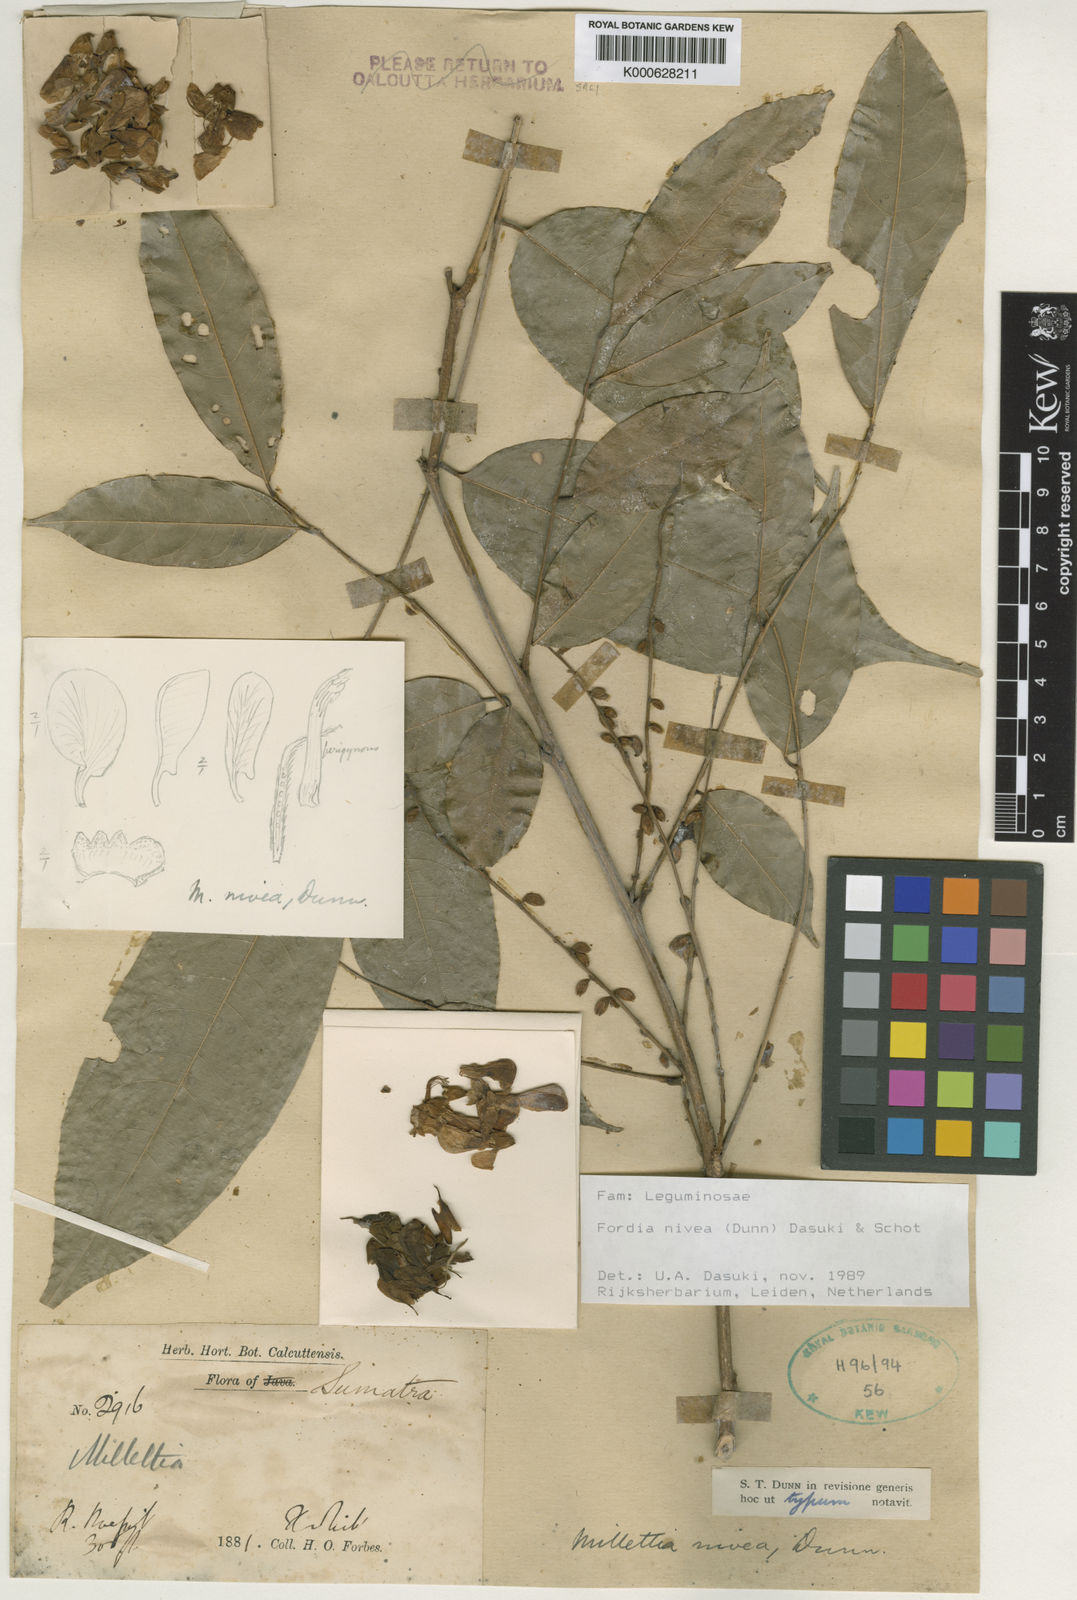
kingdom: Plantae
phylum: Tracheophyta
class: Magnoliopsida
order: Fabales
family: Fabaceae
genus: Imbralyx
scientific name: Imbralyx niveus
